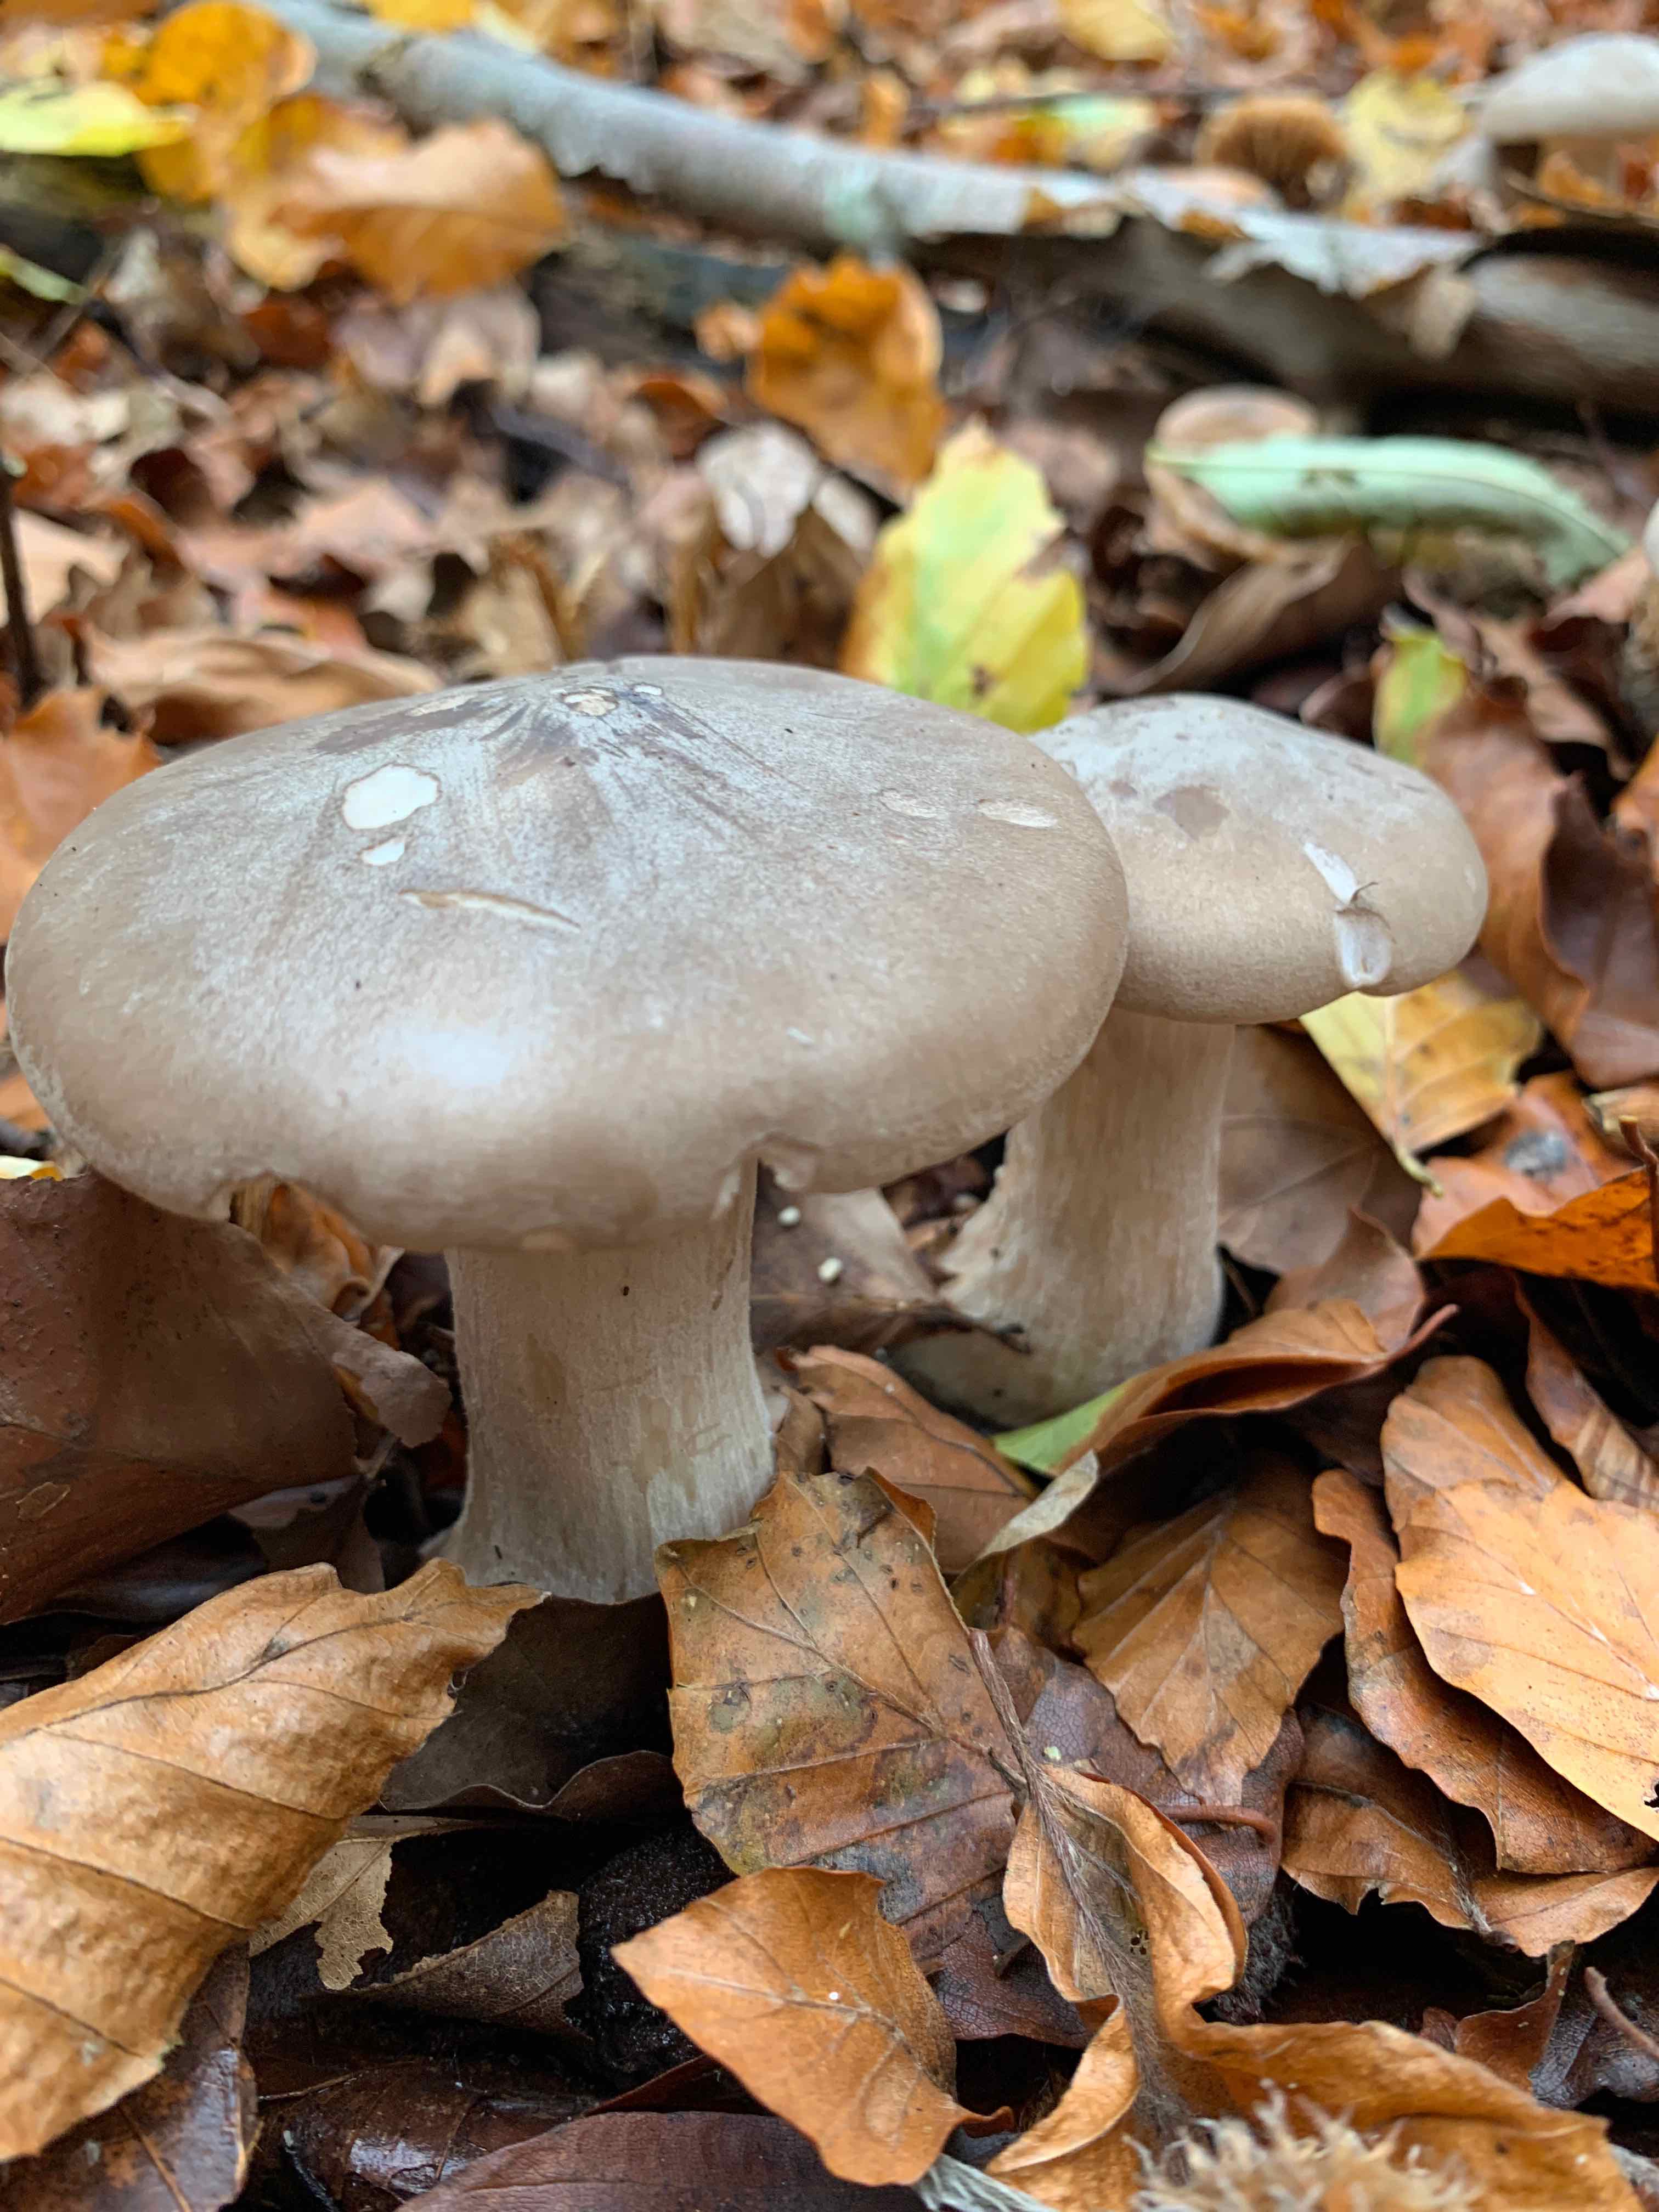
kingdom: Fungi
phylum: Basidiomycota
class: Agaricomycetes
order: Agaricales
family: Tricholomataceae
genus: Clitocybe
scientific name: Clitocybe nebularis
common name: tåge-tragthat
